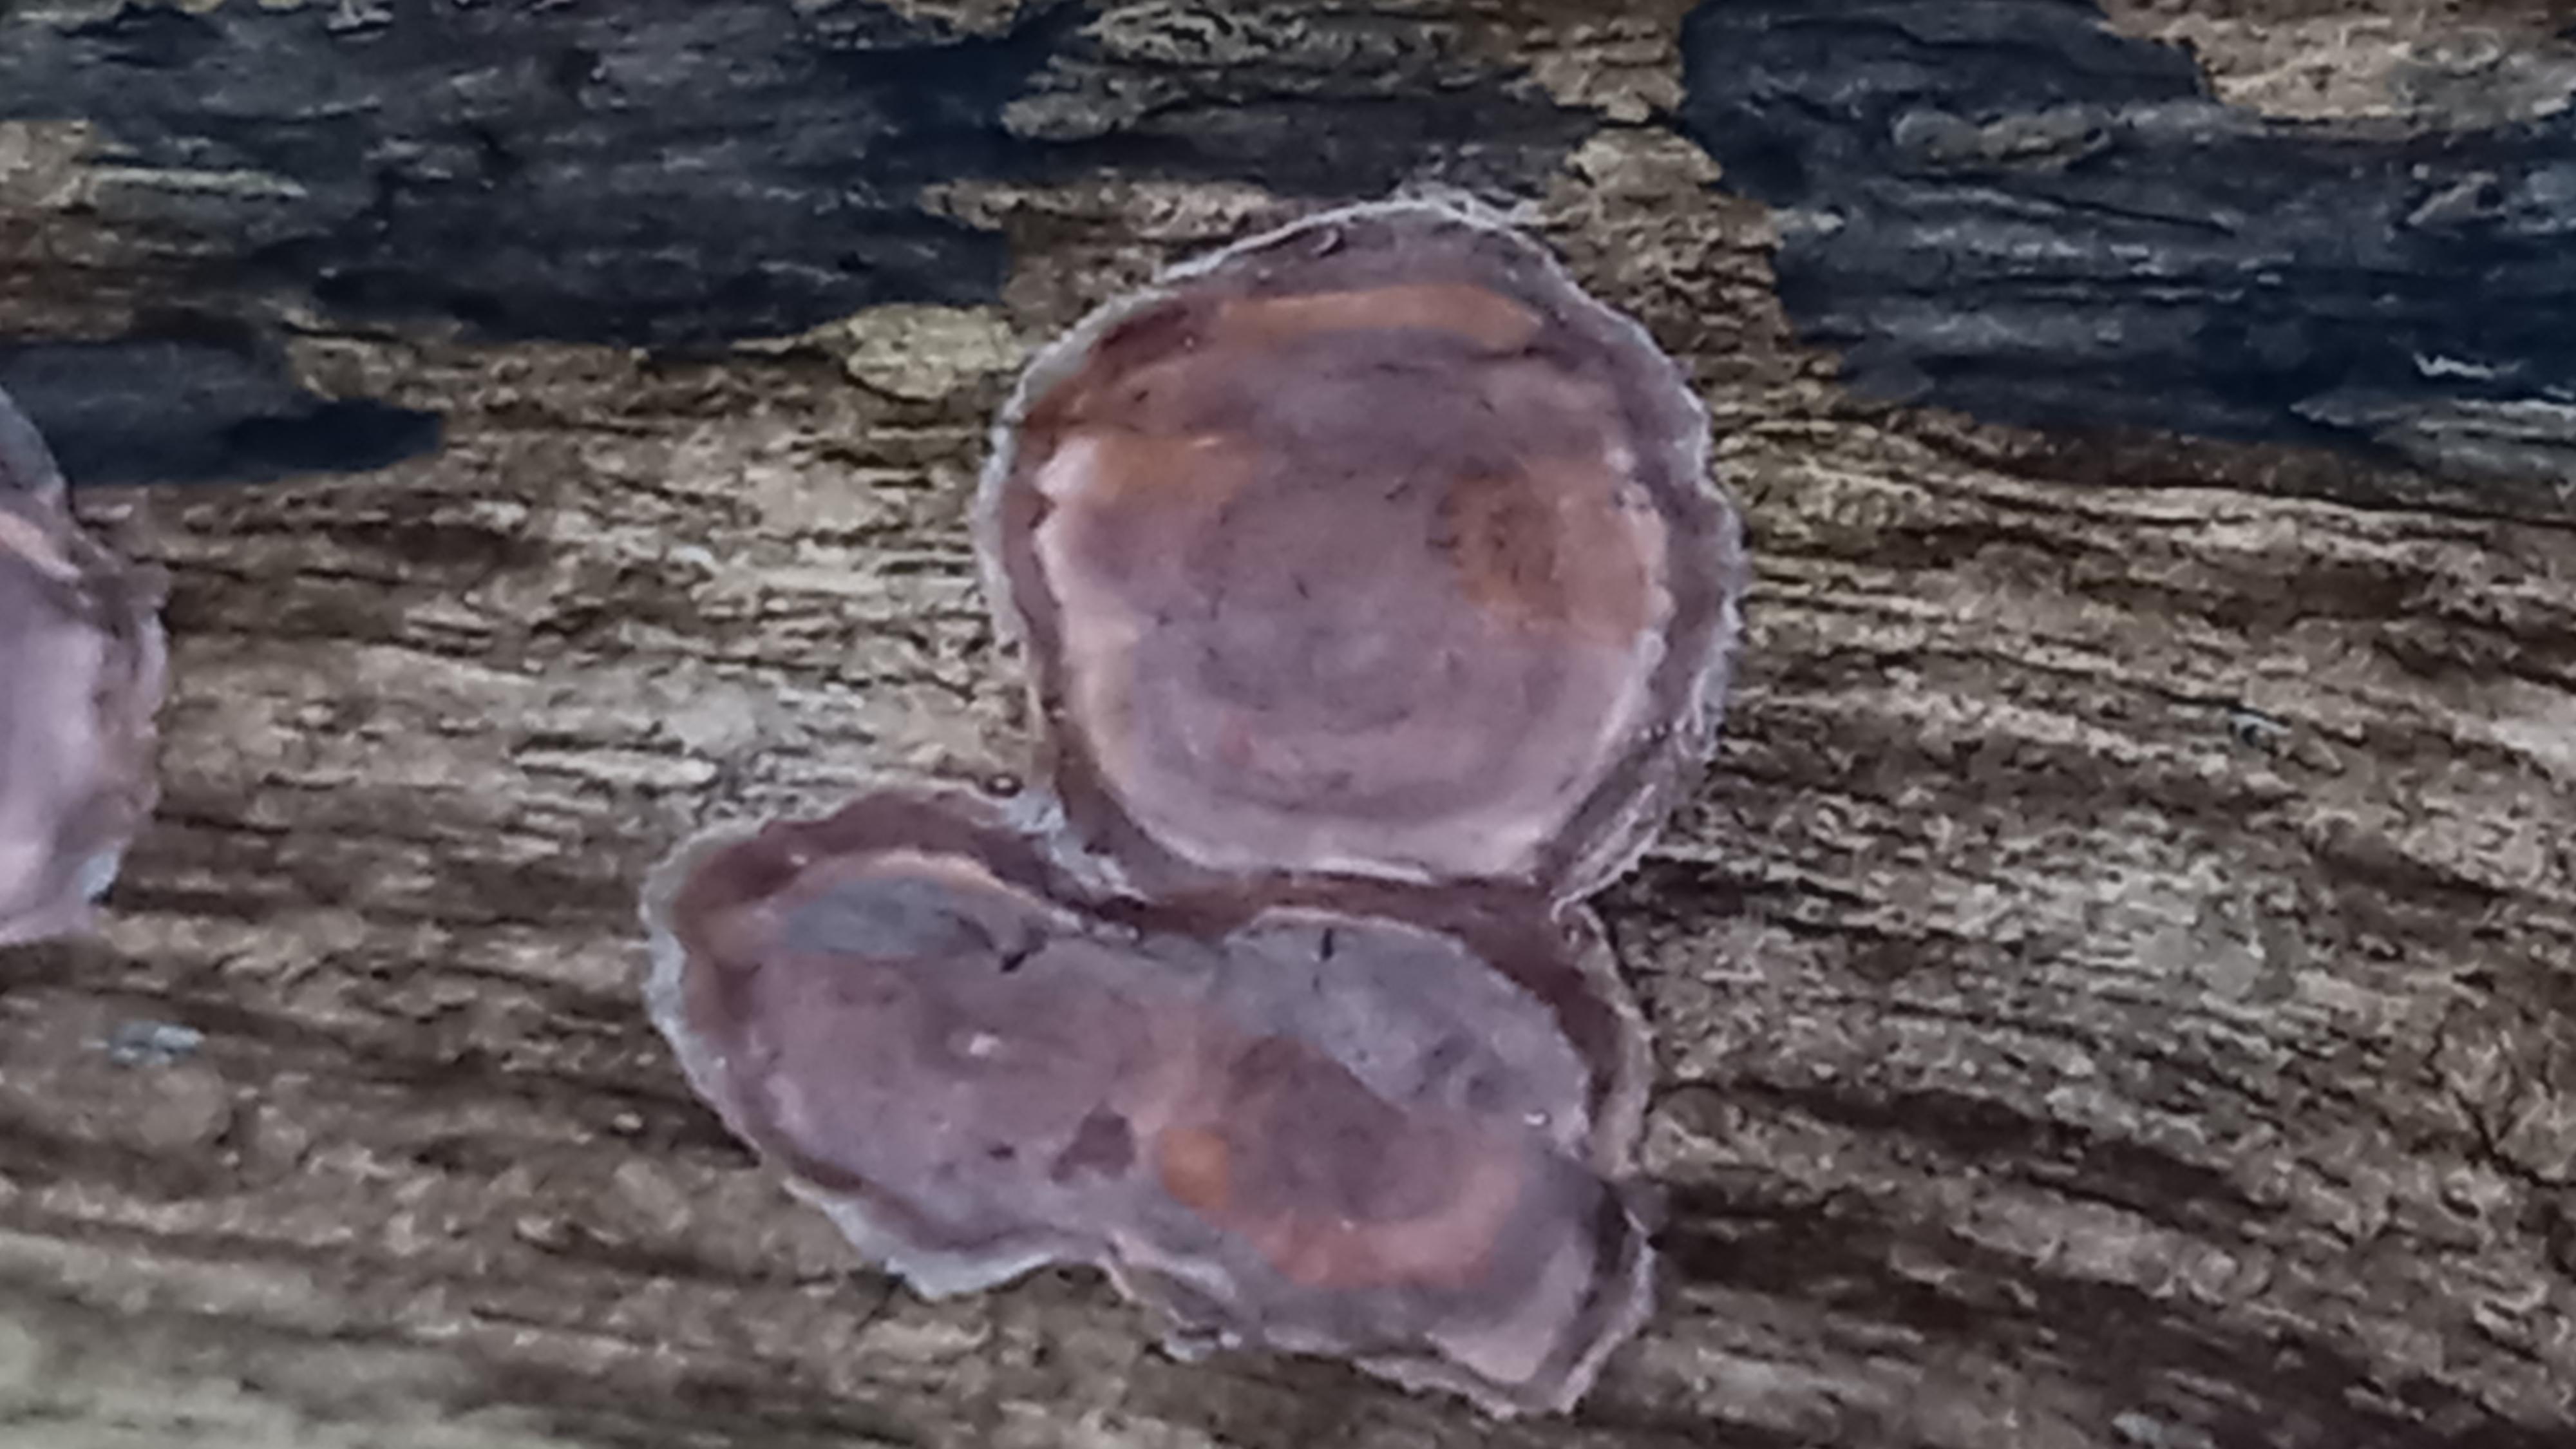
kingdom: Fungi
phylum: Basidiomycota
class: Agaricomycetes
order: Russulales
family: Peniophoraceae
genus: Peniophora
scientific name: Peniophora quercina
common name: ege-voksskind
